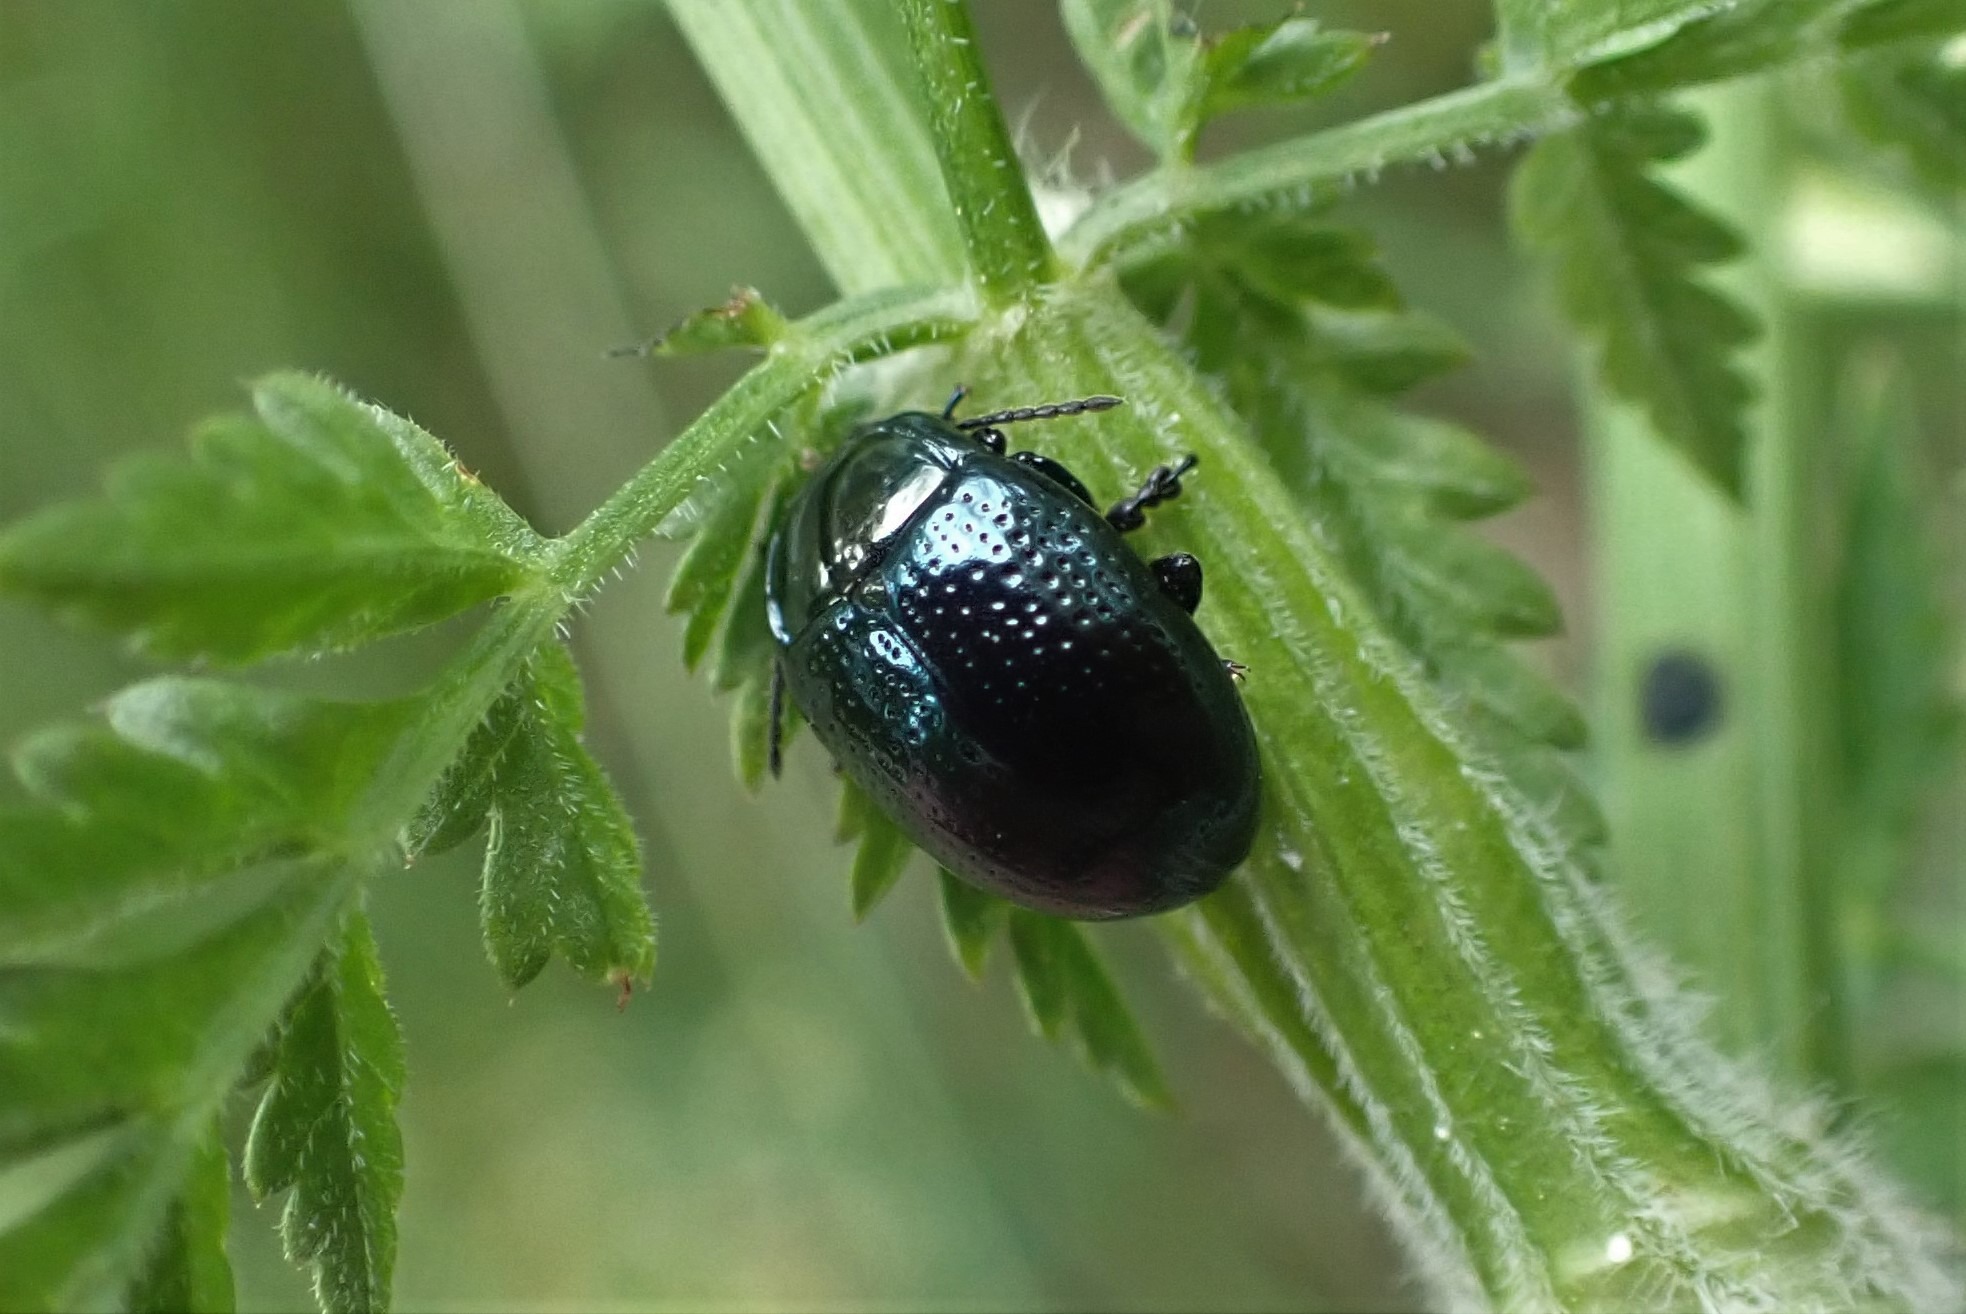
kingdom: Animalia
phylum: Arthropoda
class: Insecta
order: Coleoptera
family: Chrysomelidae
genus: Chrysolina
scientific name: Chrysolina oricalcia
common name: Rækkepunkteret guldbille
